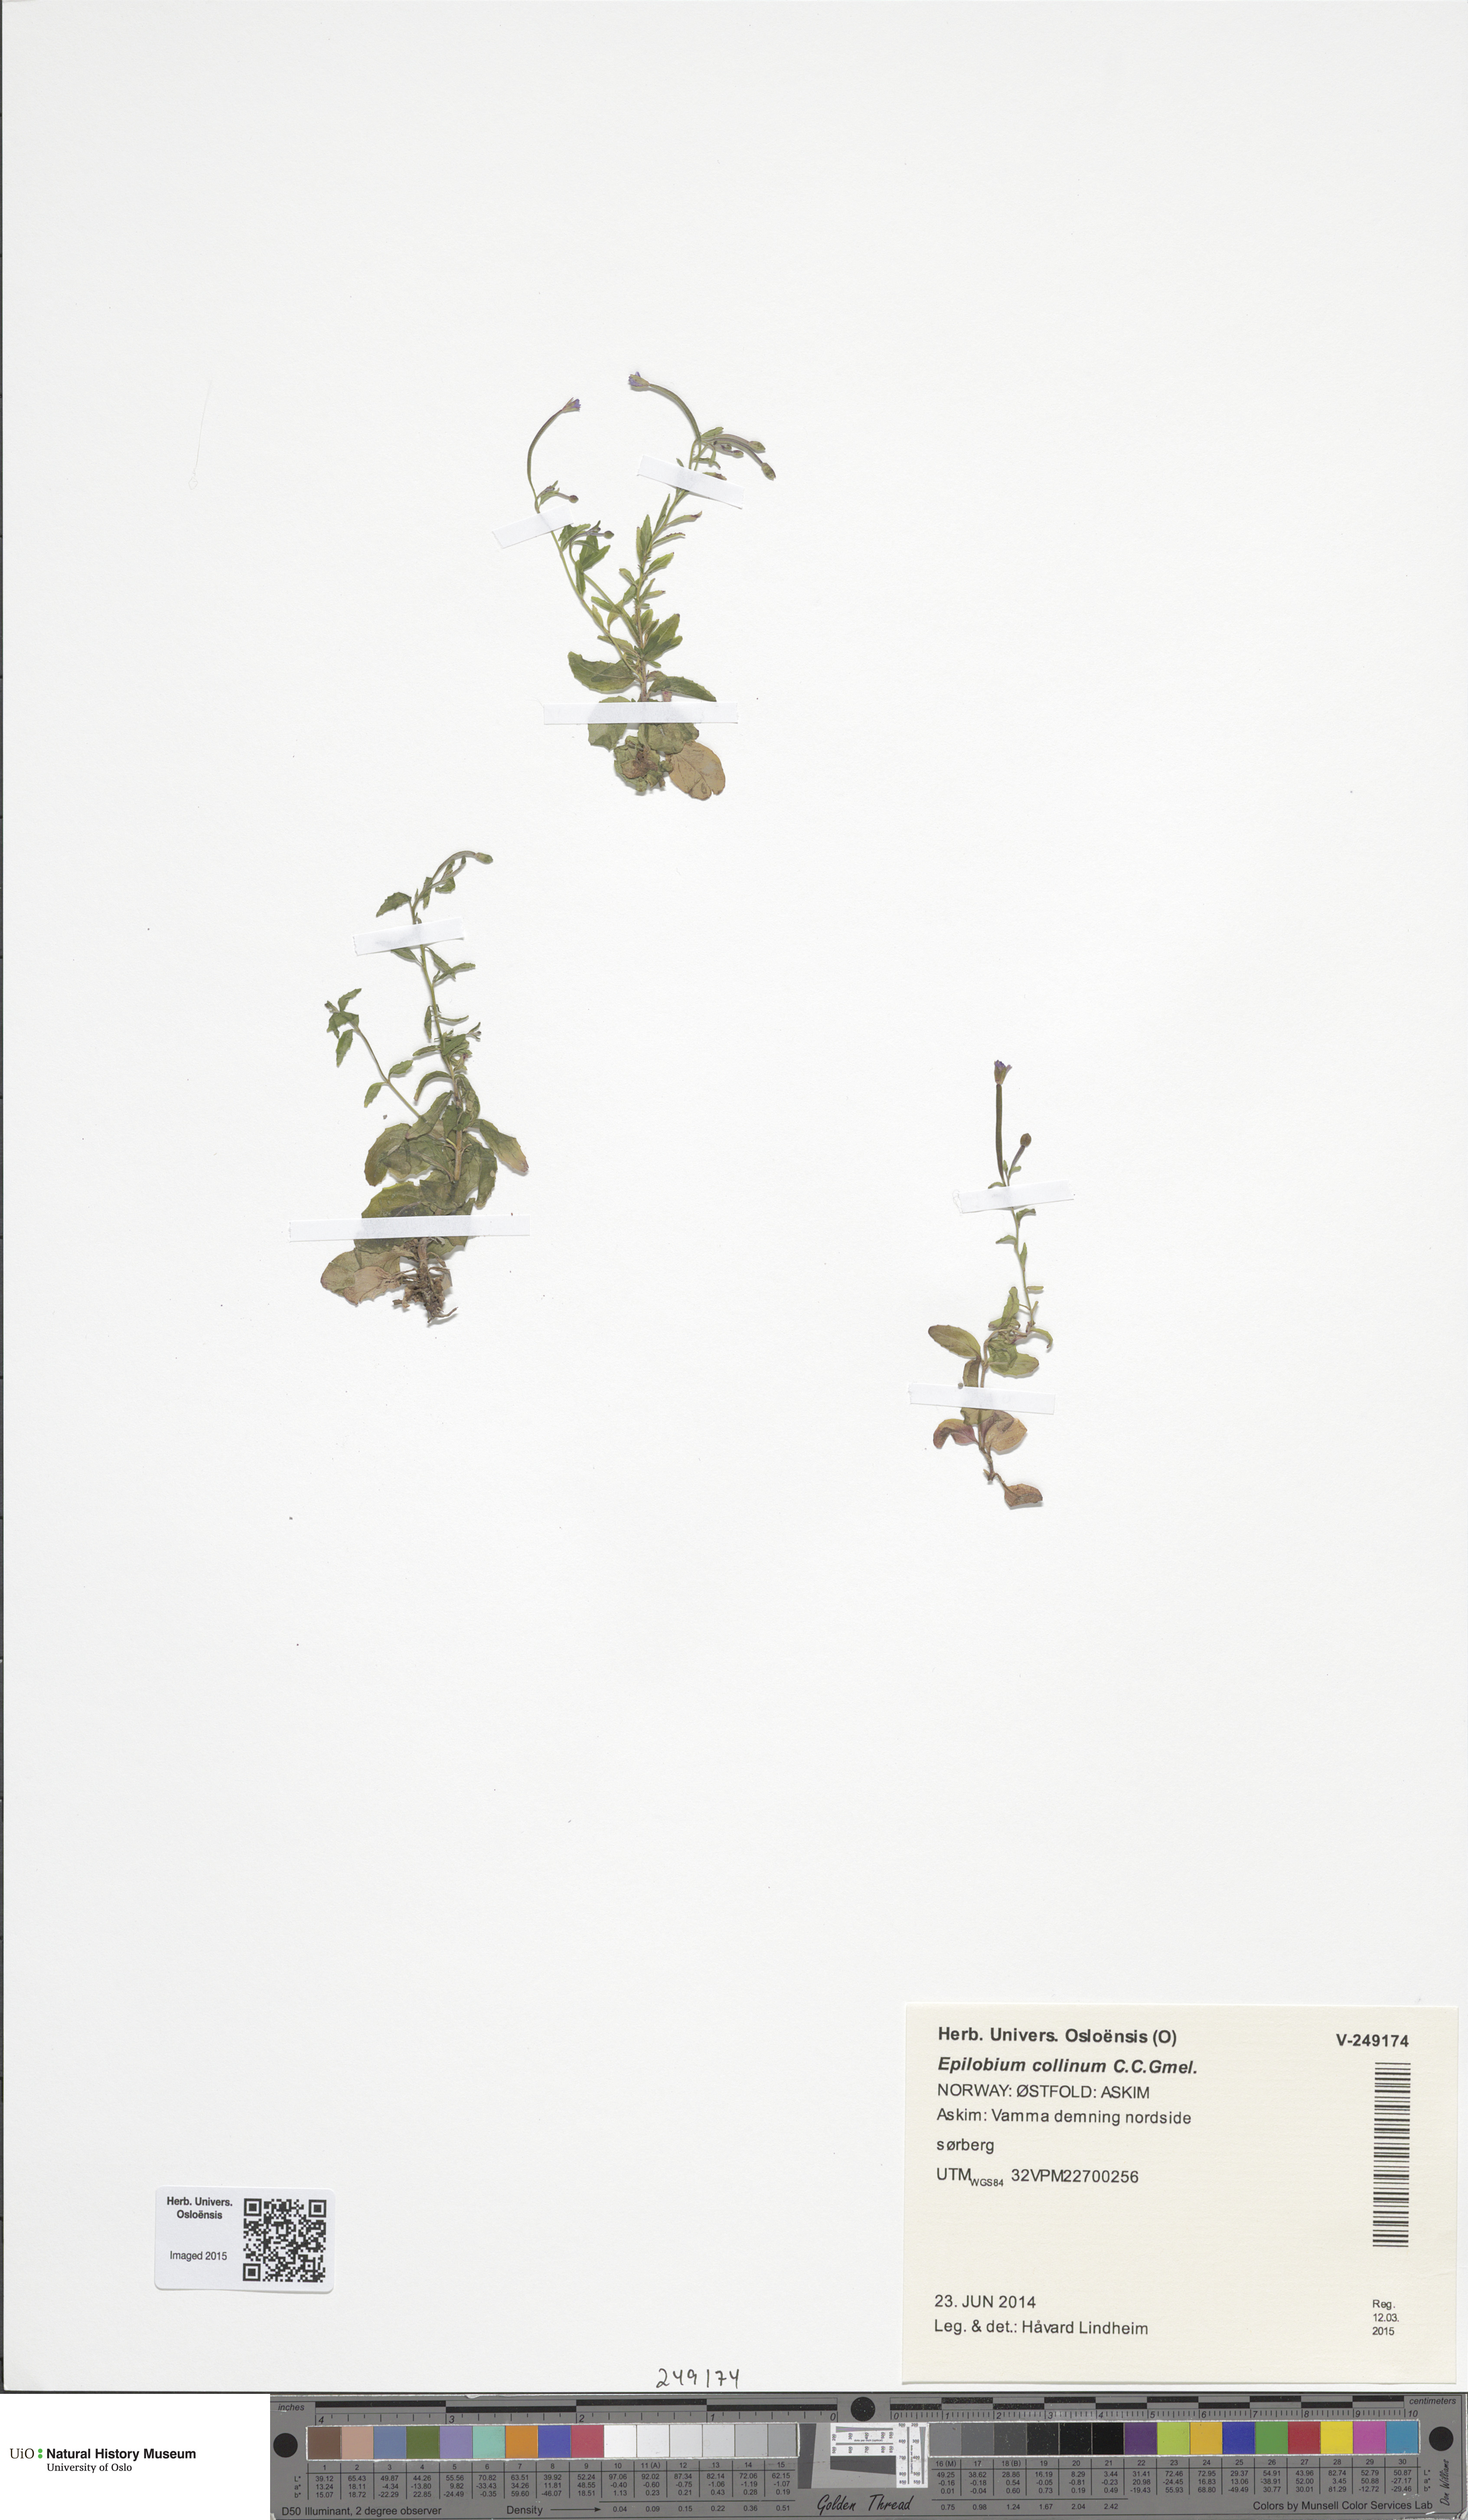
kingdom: Plantae
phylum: Tracheophyta
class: Magnoliopsida
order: Myrtales
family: Onagraceae
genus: Epilobium
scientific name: Epilobium collinum
